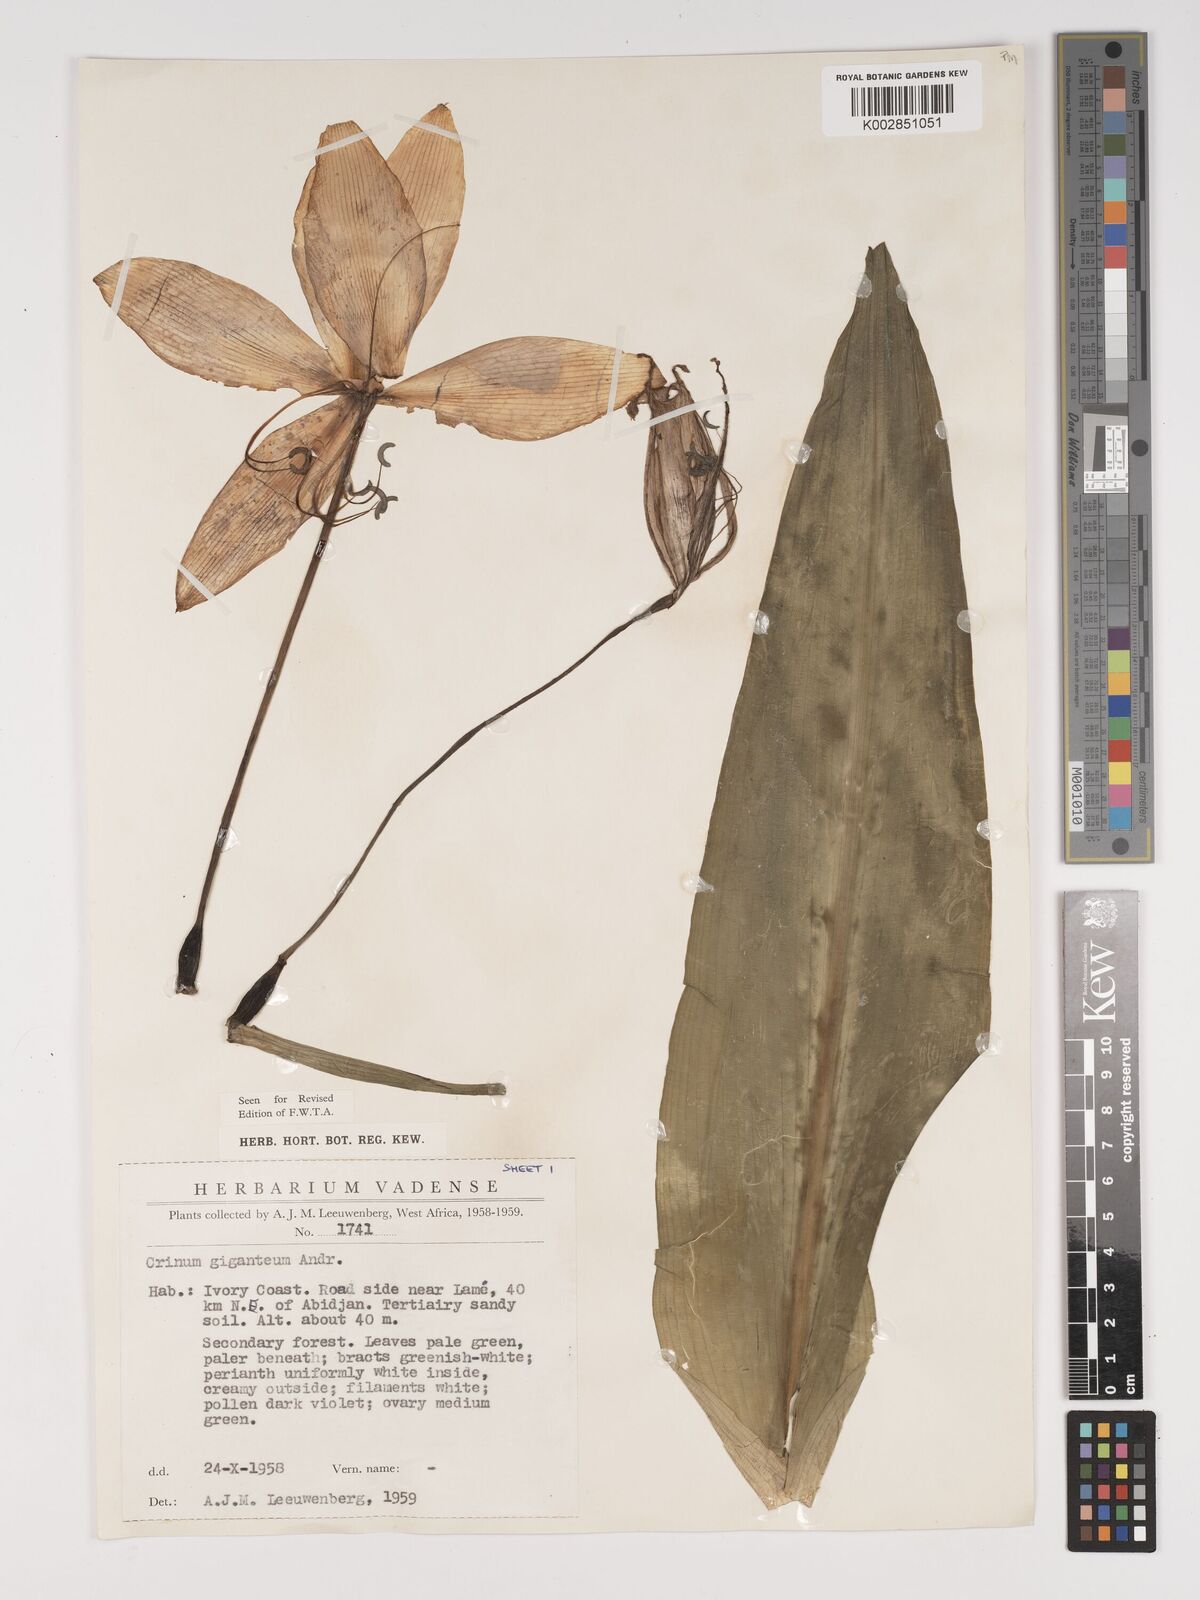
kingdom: Plantae
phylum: Tracheophyta
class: Liliopsida
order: Asparagales
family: Amaryllidaceae
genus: Crinum
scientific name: Crinum jagus
